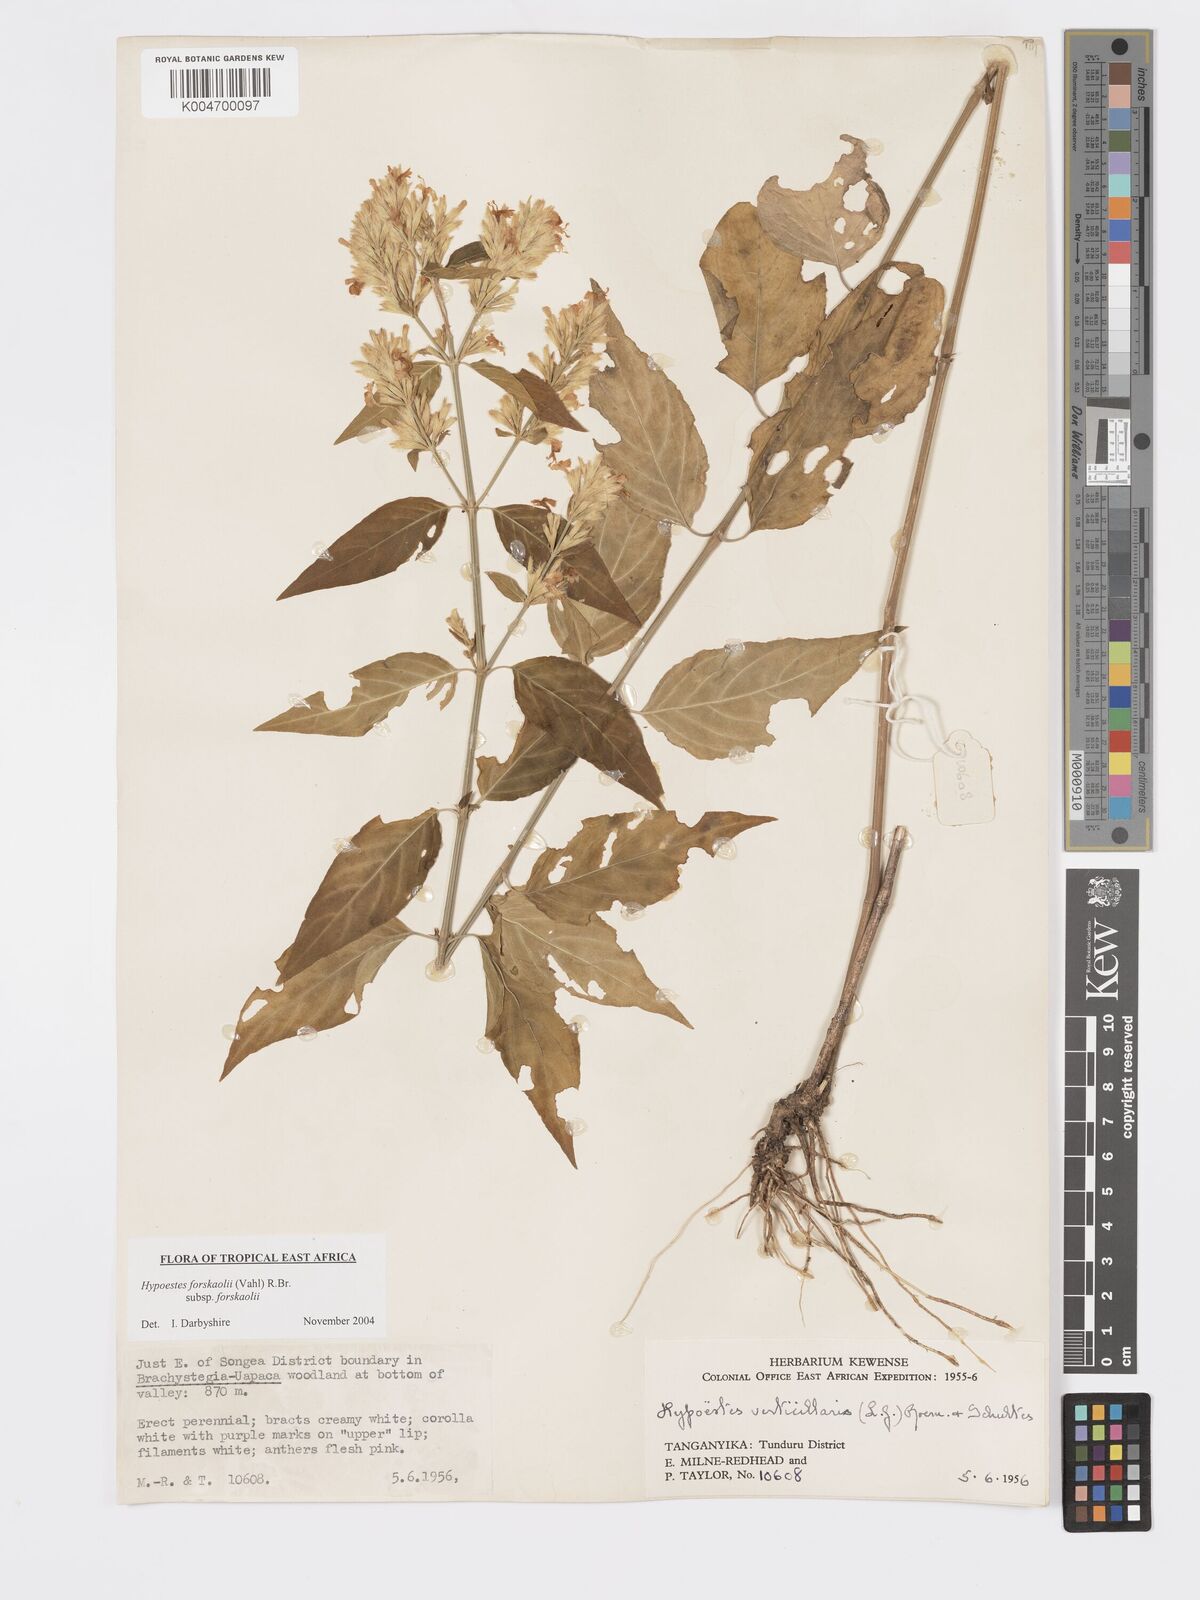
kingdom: Plantae
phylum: Tracheophyta
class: Magnoliopsida
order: Lamiales
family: Acanthaceae
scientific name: Acanthaceae
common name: Acanthaceae
